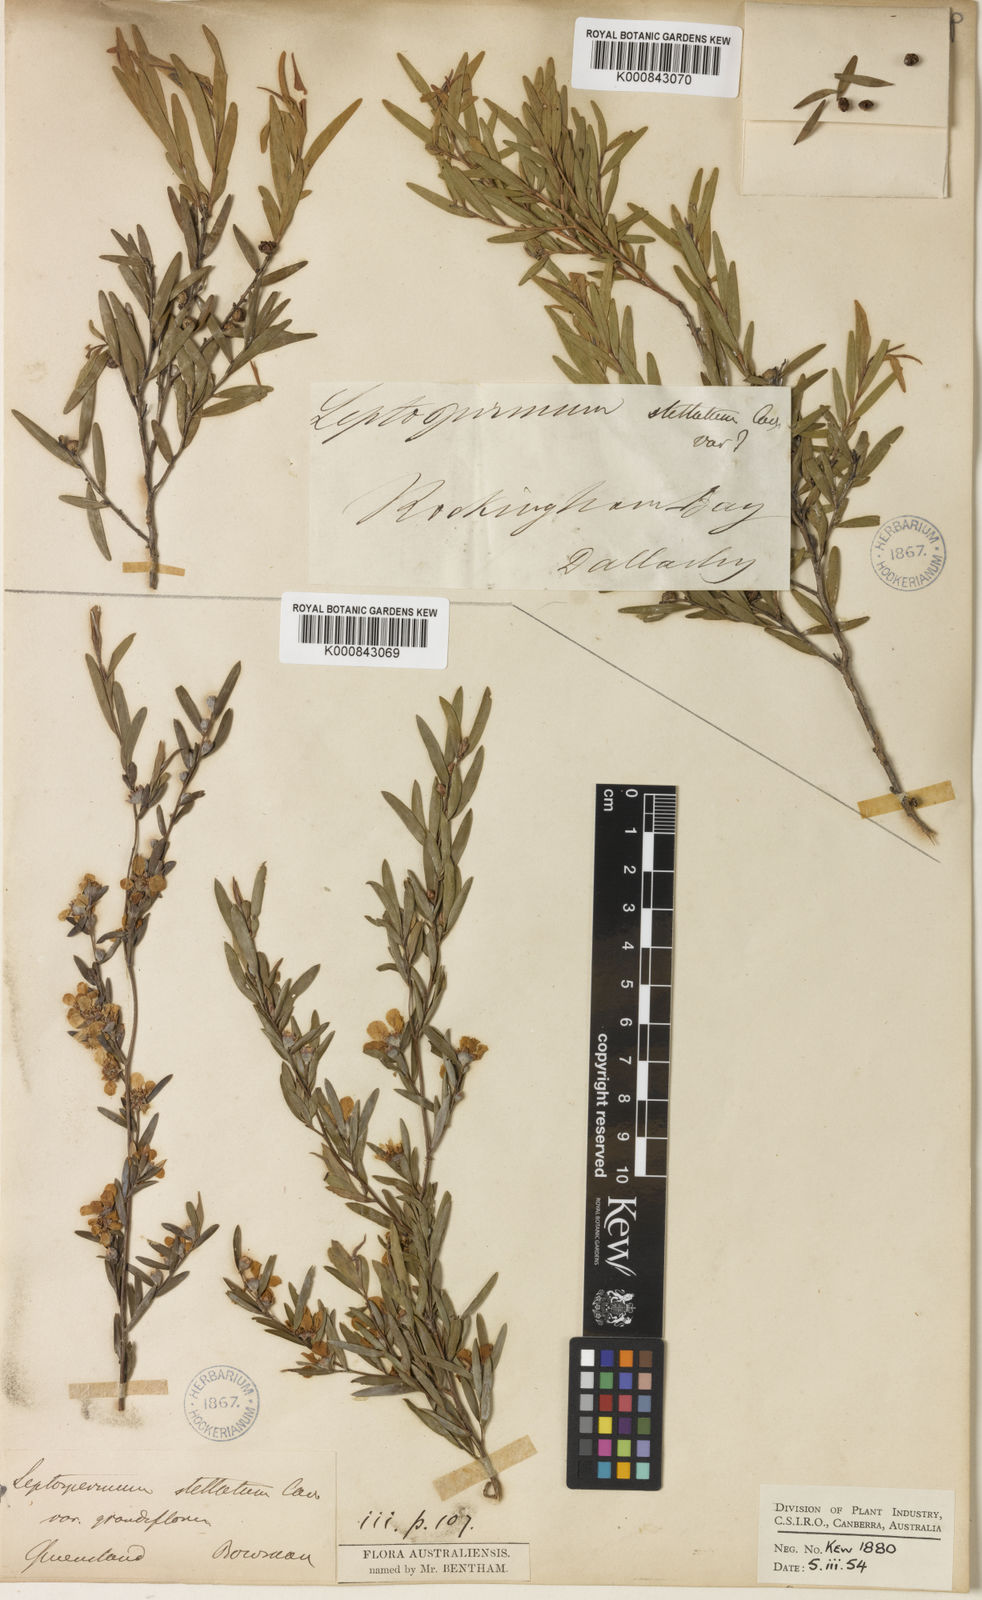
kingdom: Plantae
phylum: Tracheophyta
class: Magnoliopsida
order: Myrtales
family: Myrtaceae
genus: Leptospermum
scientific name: Leptospermum trinervium
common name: Flaky-barked tea-tree
